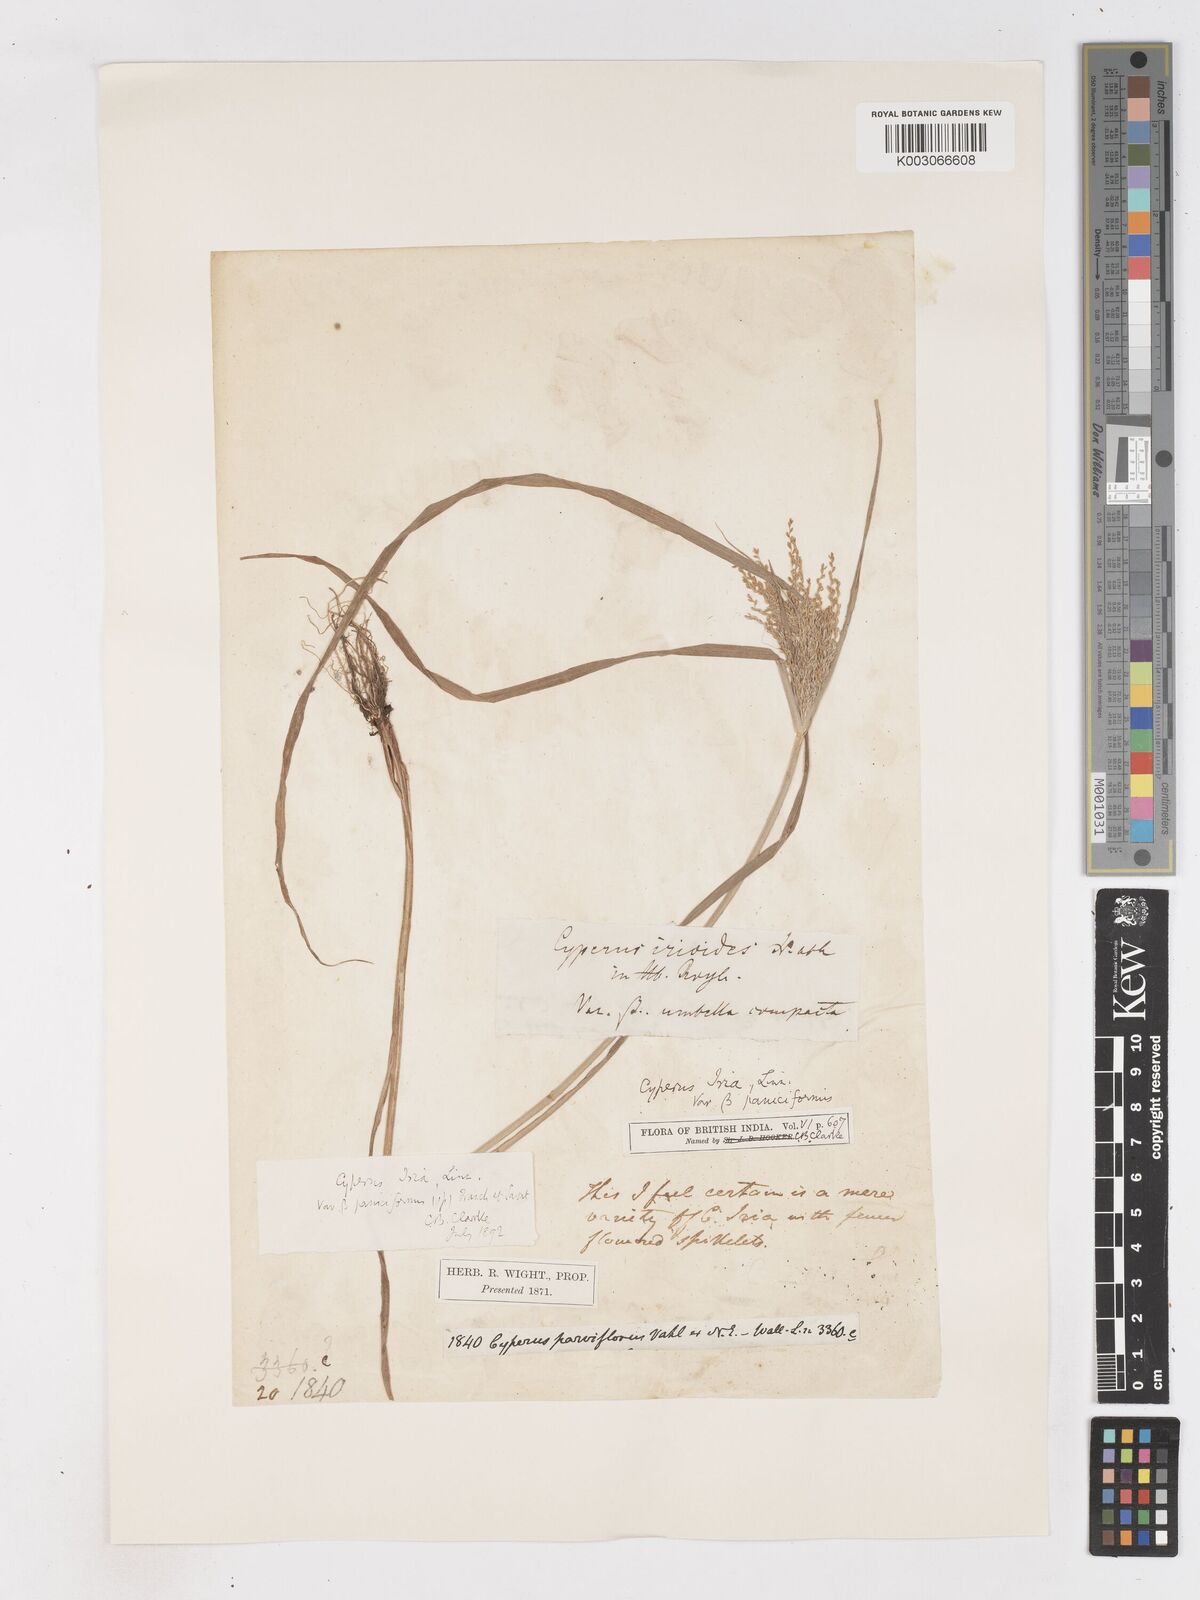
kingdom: Plantae
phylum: Tracheophyta
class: Liliopsida
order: Poales
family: Cyperaceae
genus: Cyperus
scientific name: Cyperus microiria
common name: Asian flatsedge
